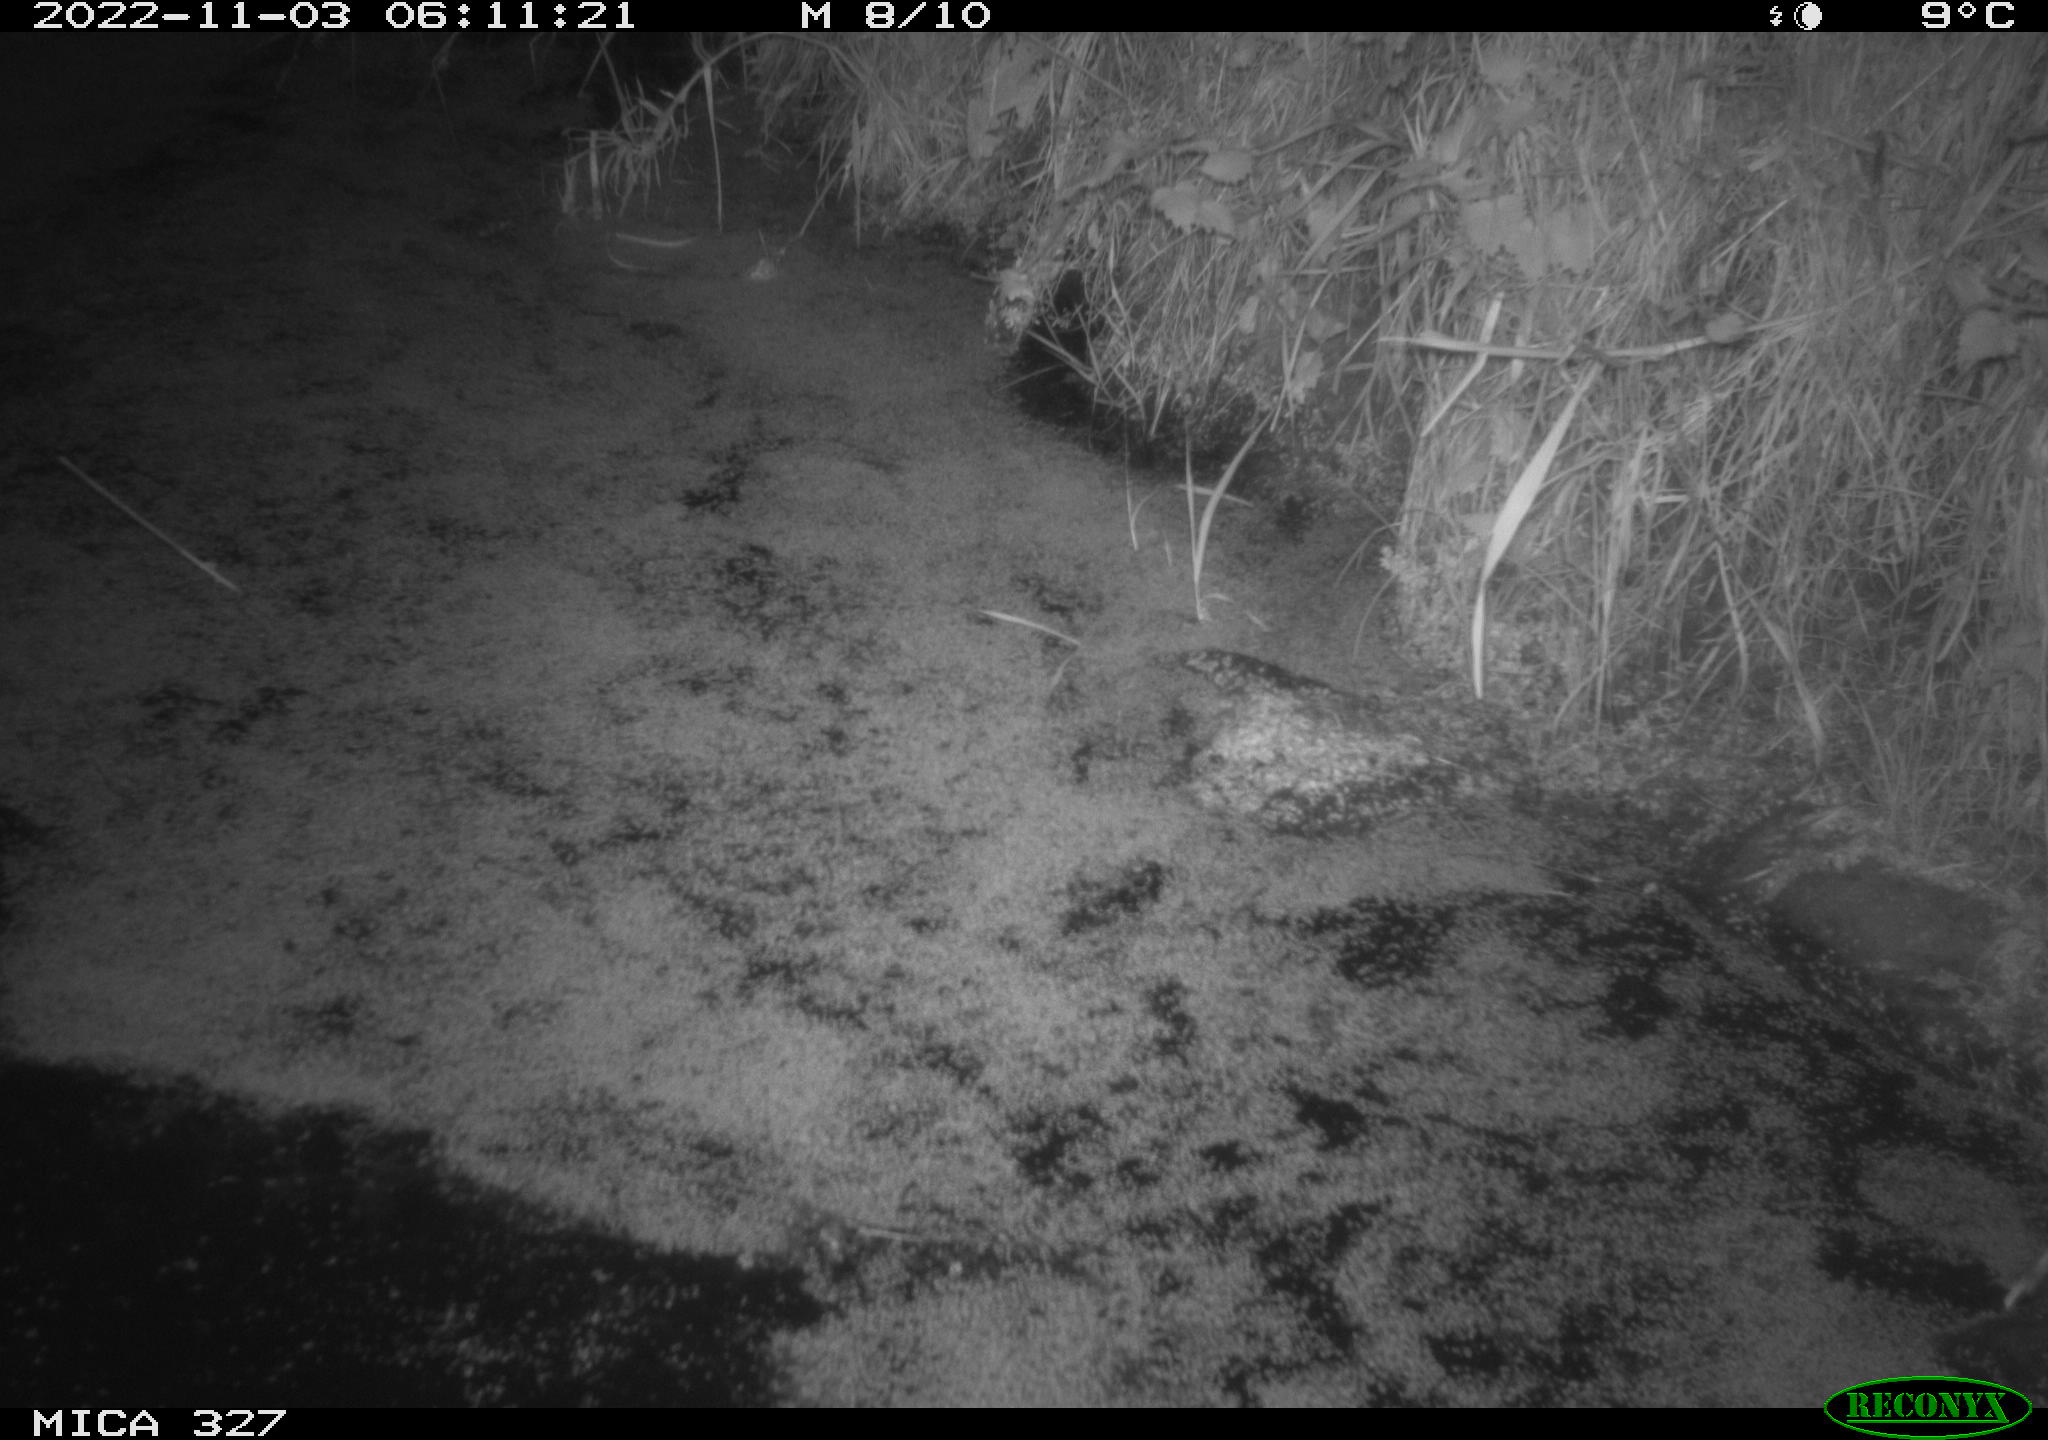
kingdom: Animalia
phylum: Chordata
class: Mammalia
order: Rodentia
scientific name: Rodentia
